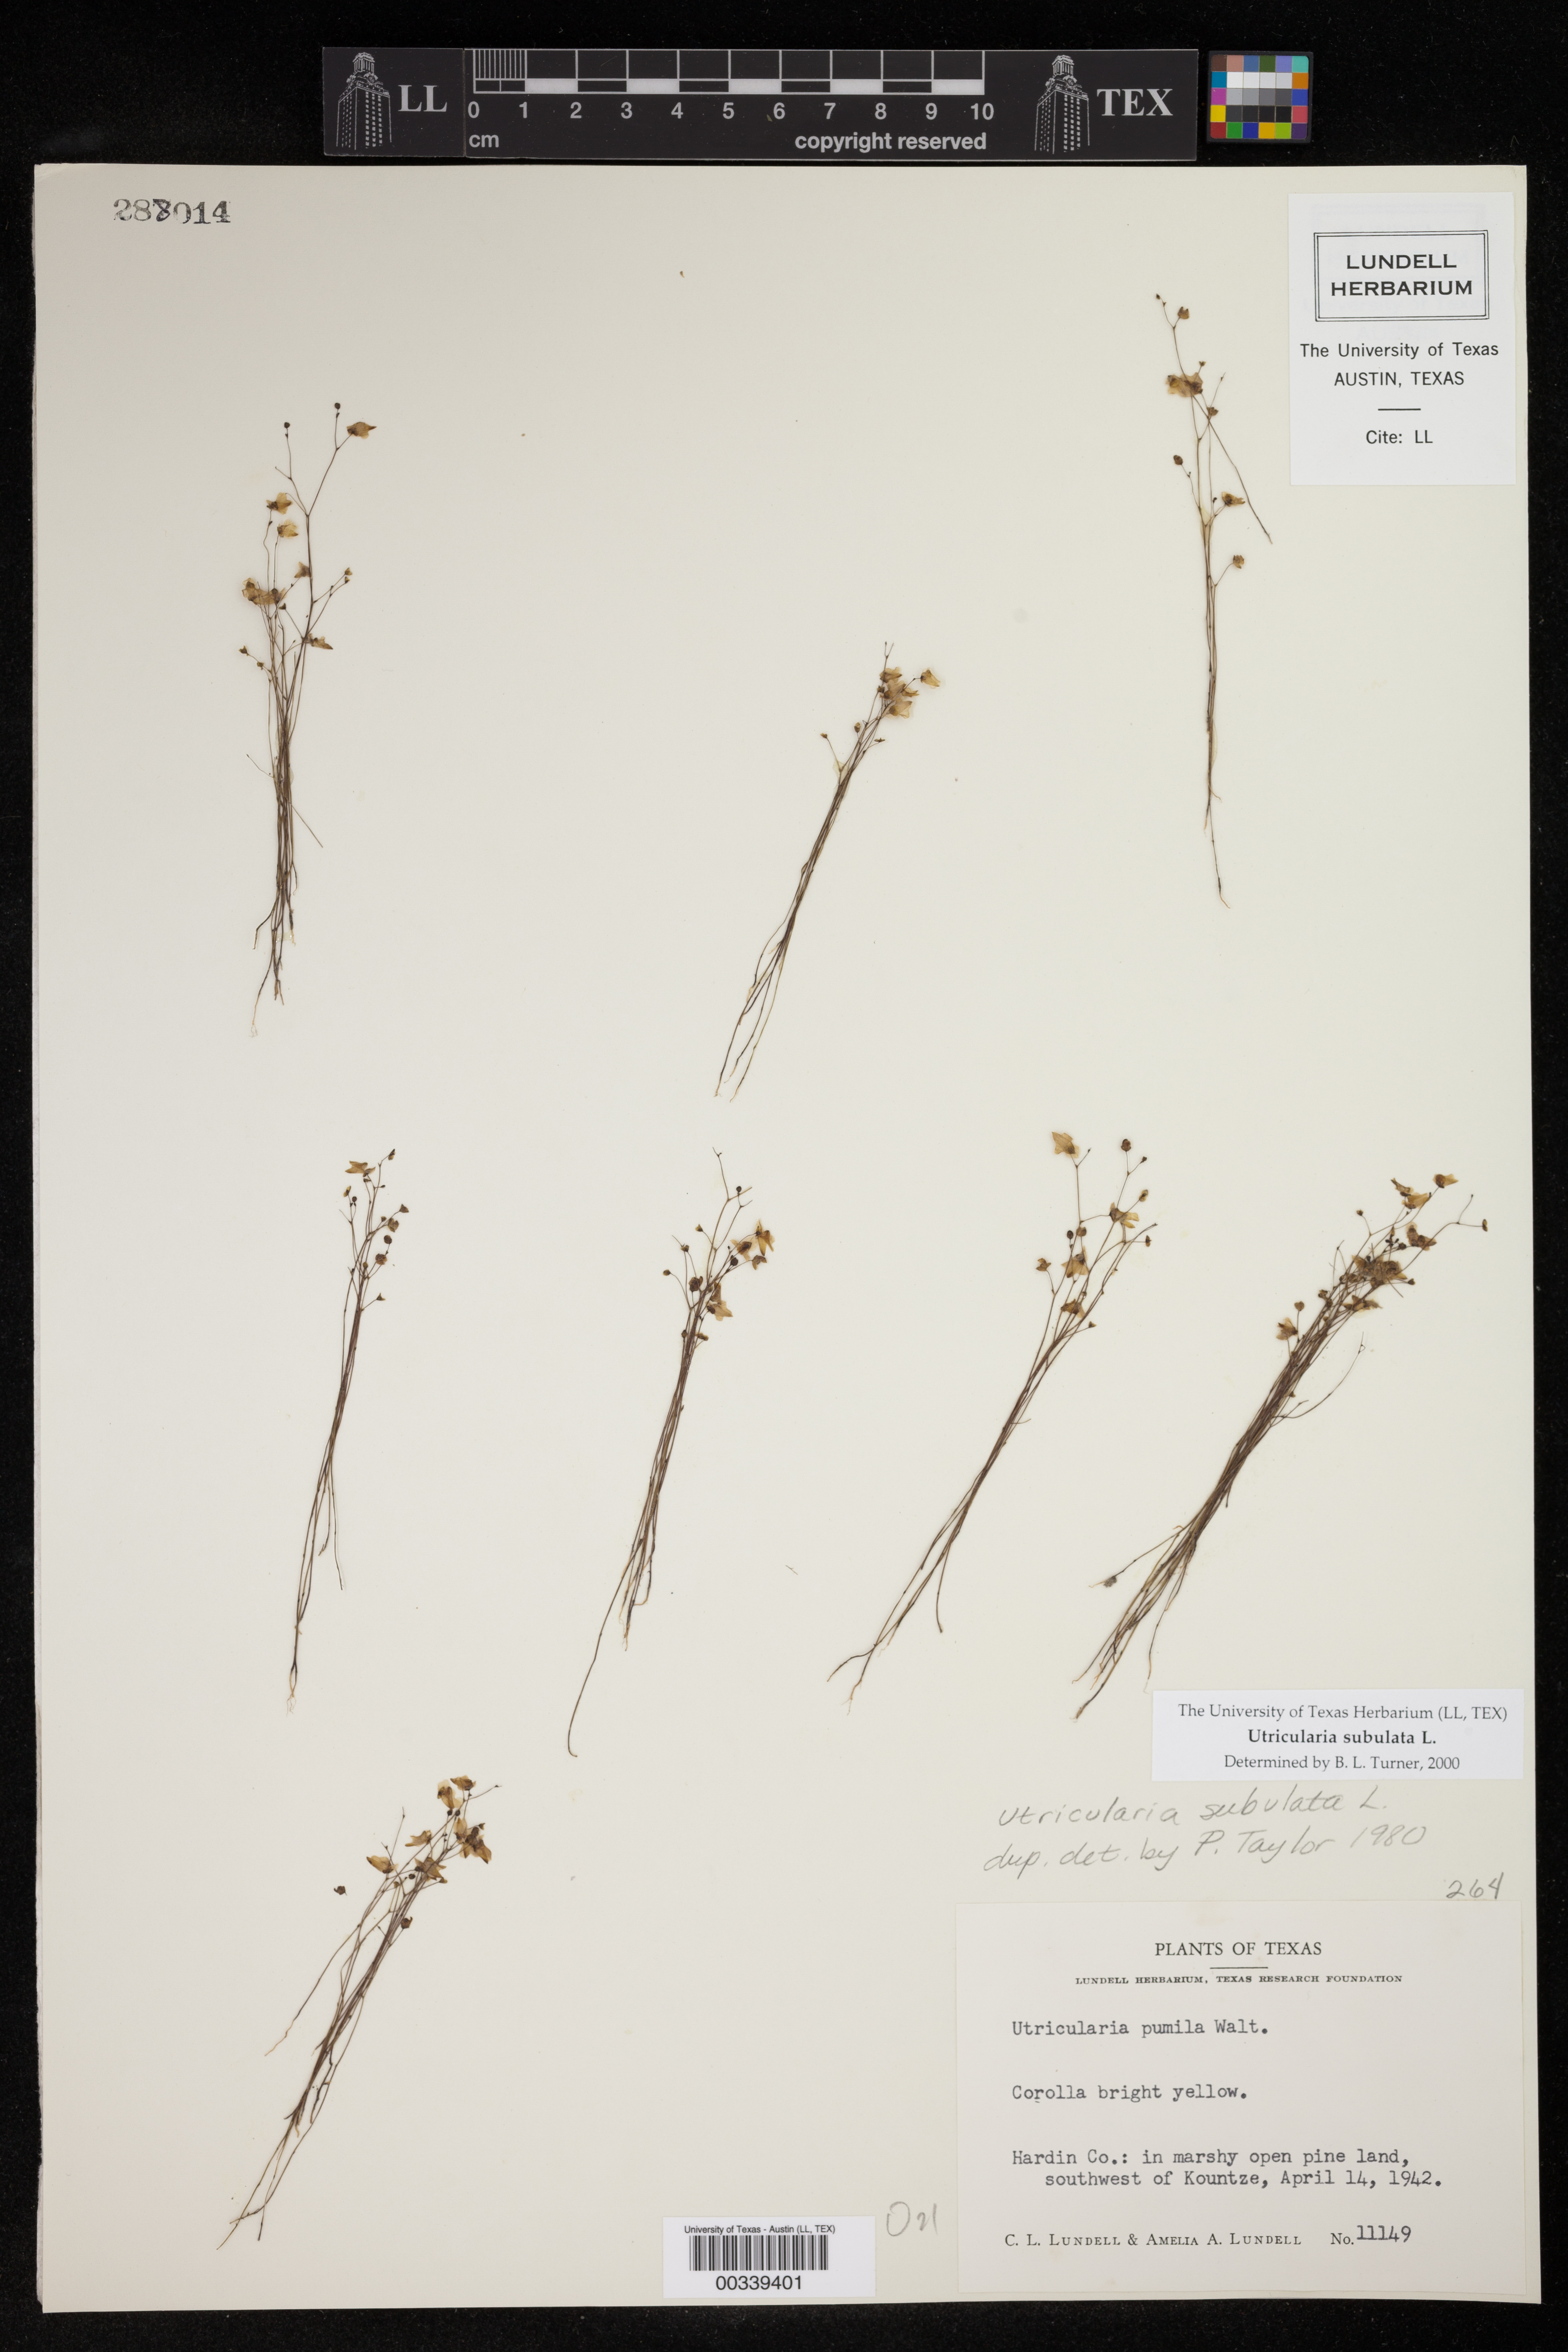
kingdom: Plantae
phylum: Tracheophyta
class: Magnoliopsida
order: Lamiales
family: Lentibulariaceae
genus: Utricularia
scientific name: Utricularia subulata
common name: Tiny bladderwort
